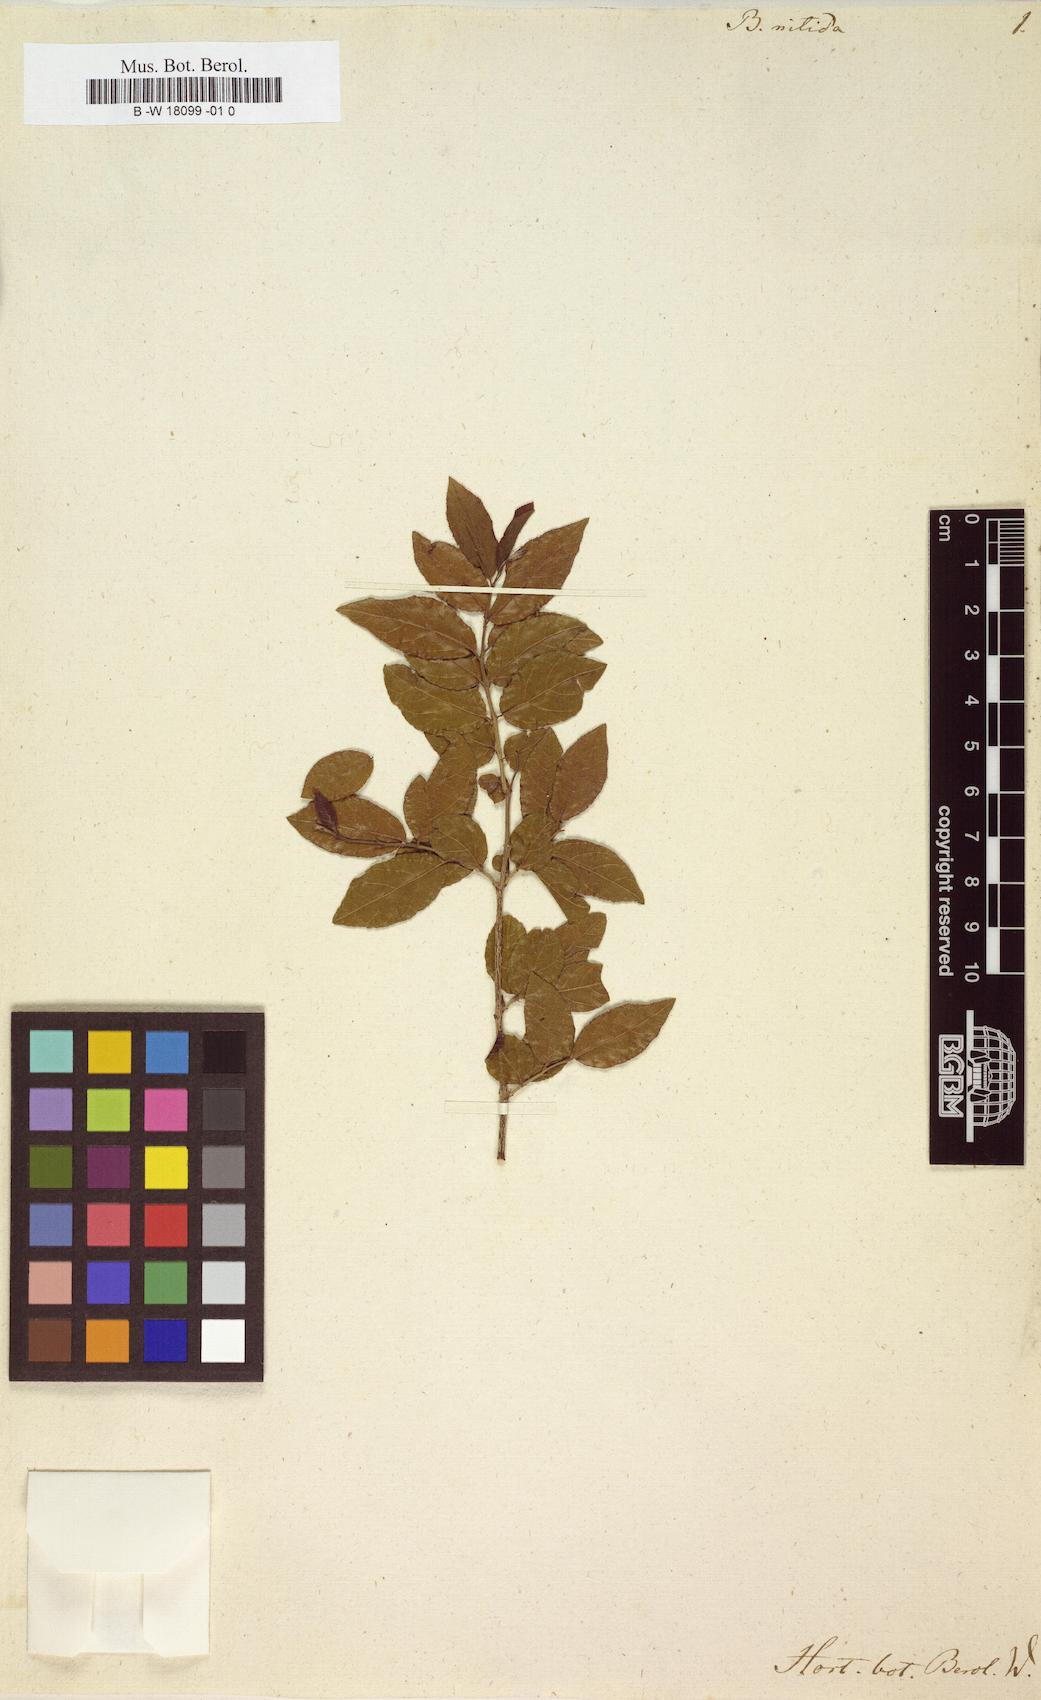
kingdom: Plantae
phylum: Tracheophyta
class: Magnoliopsida
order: Lamiales
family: Oleaceae
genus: Forestiera
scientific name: Forestiera Borya nitida
